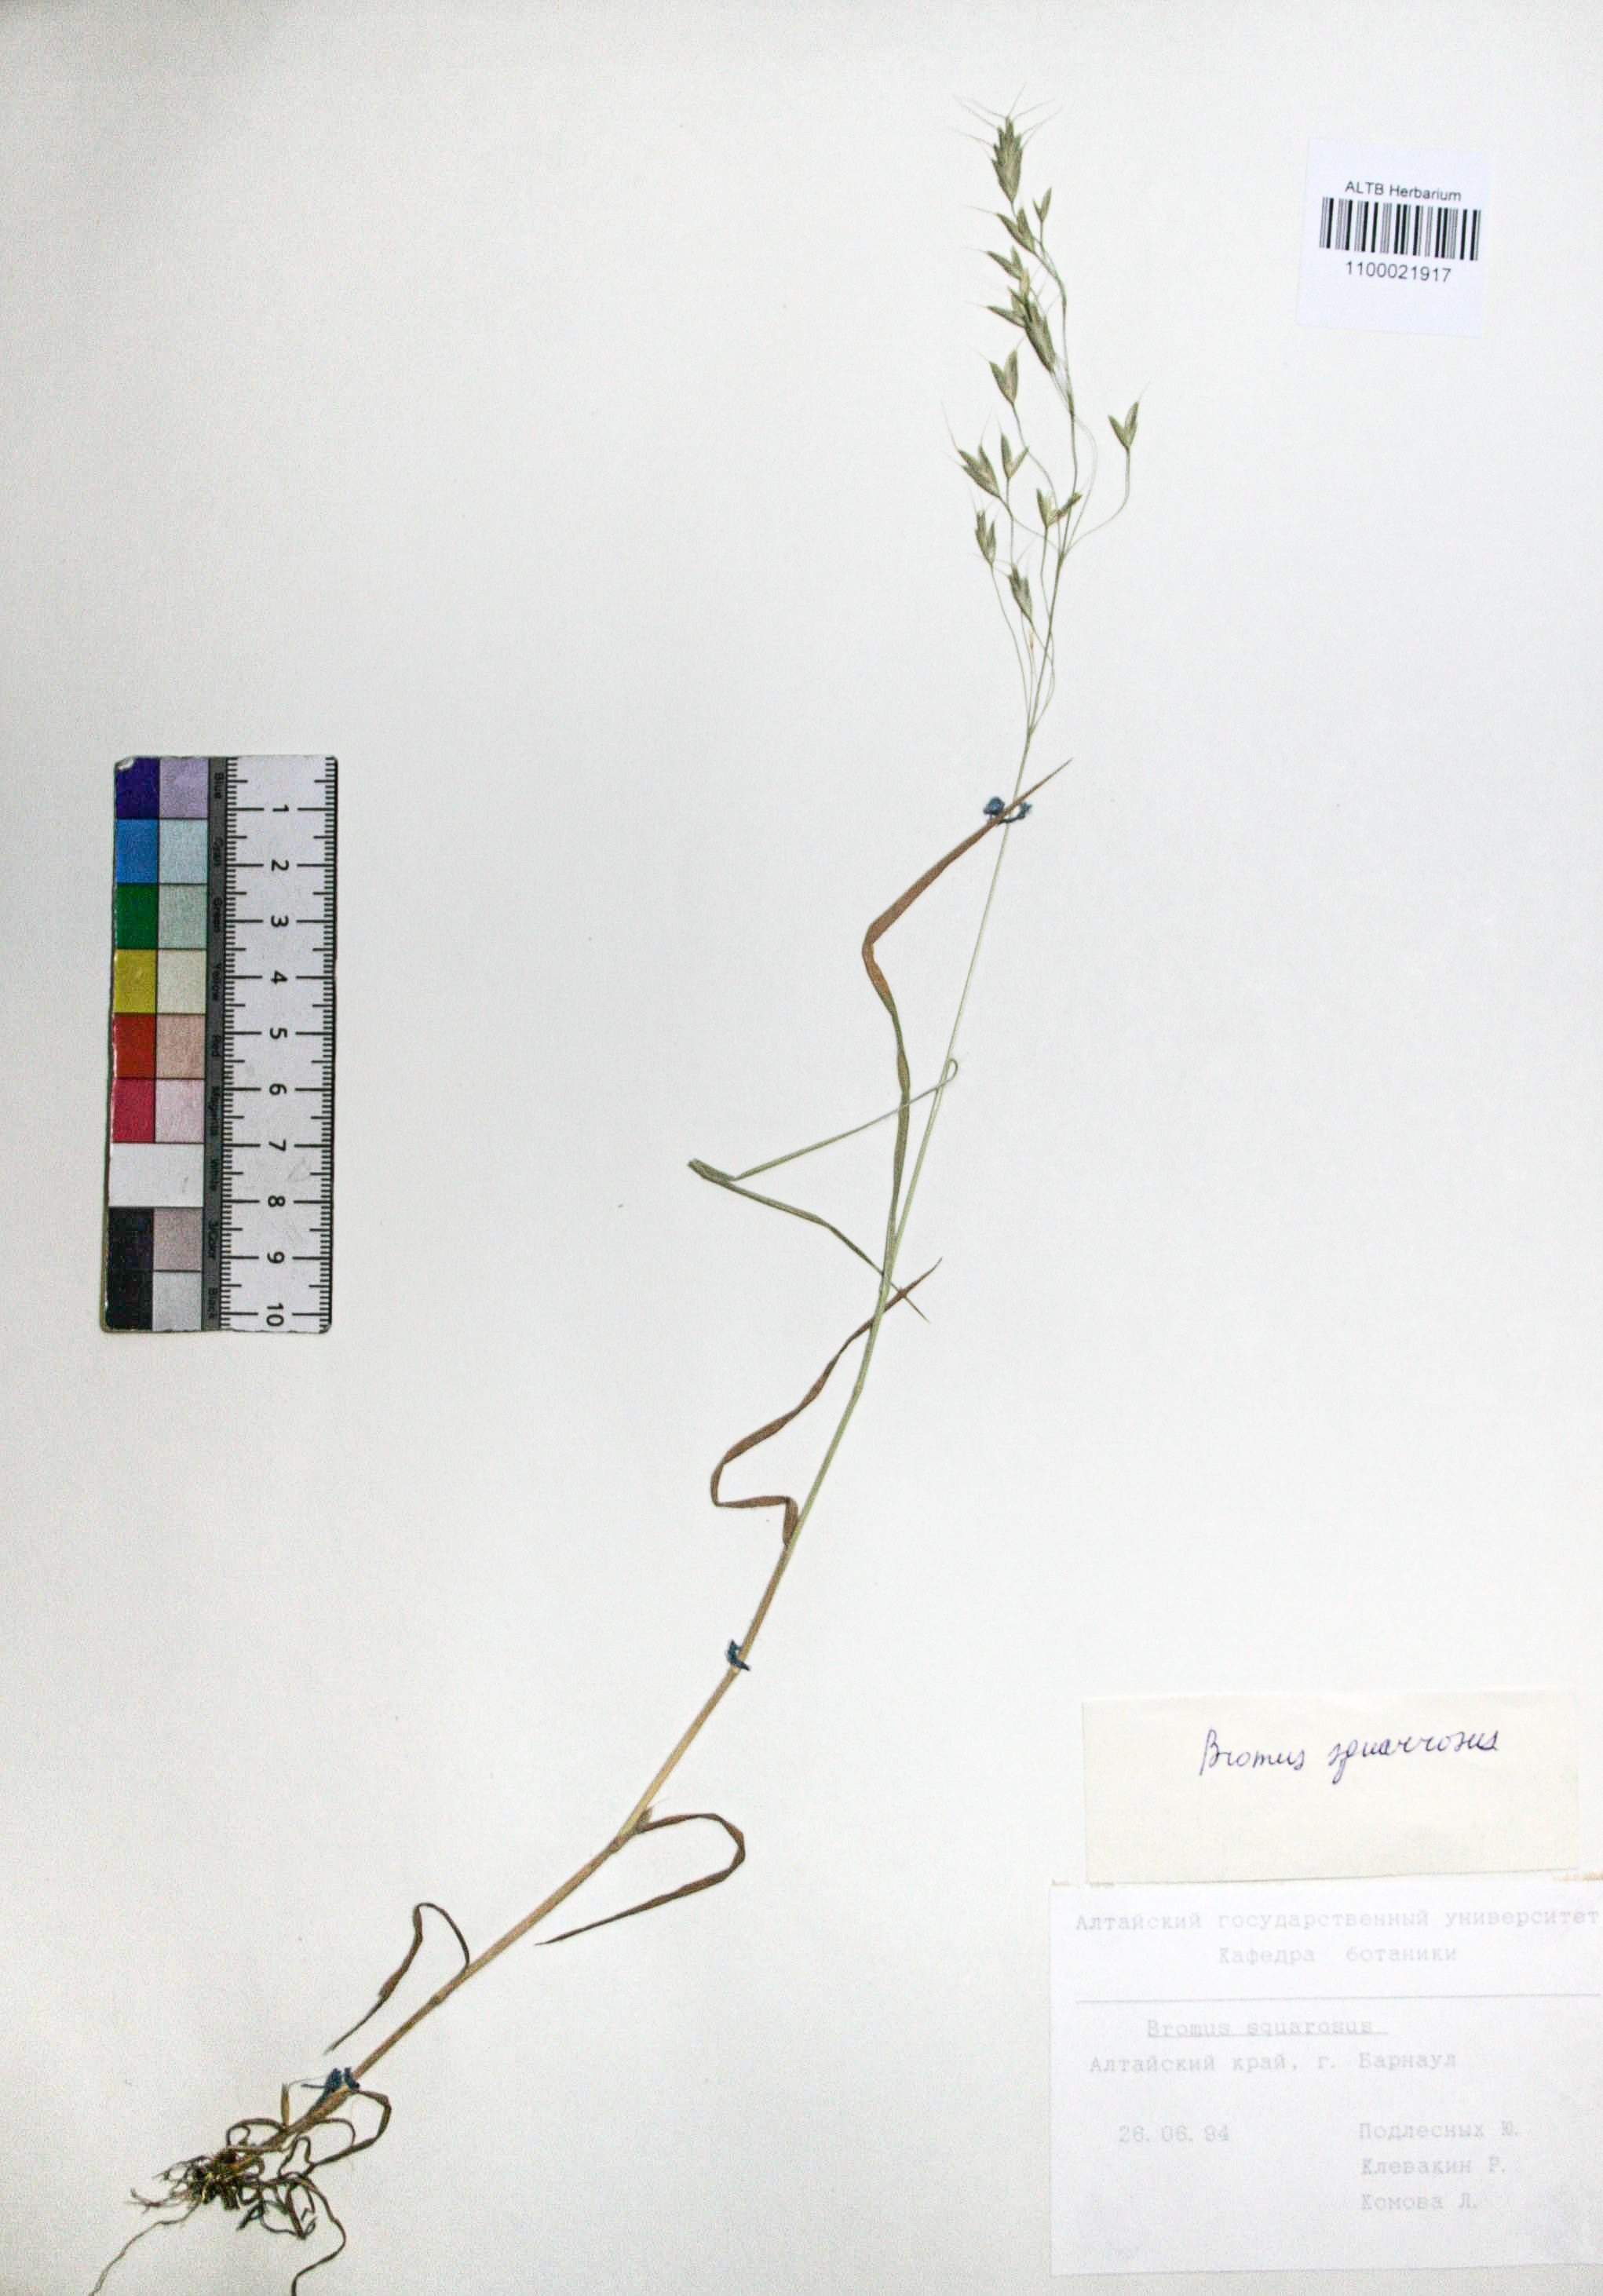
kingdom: Plantae
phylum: Tracheophyta
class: Liliopsida
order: Poales
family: Poaceae
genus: Bromus
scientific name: Bromus squarrosus
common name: Corn brome
